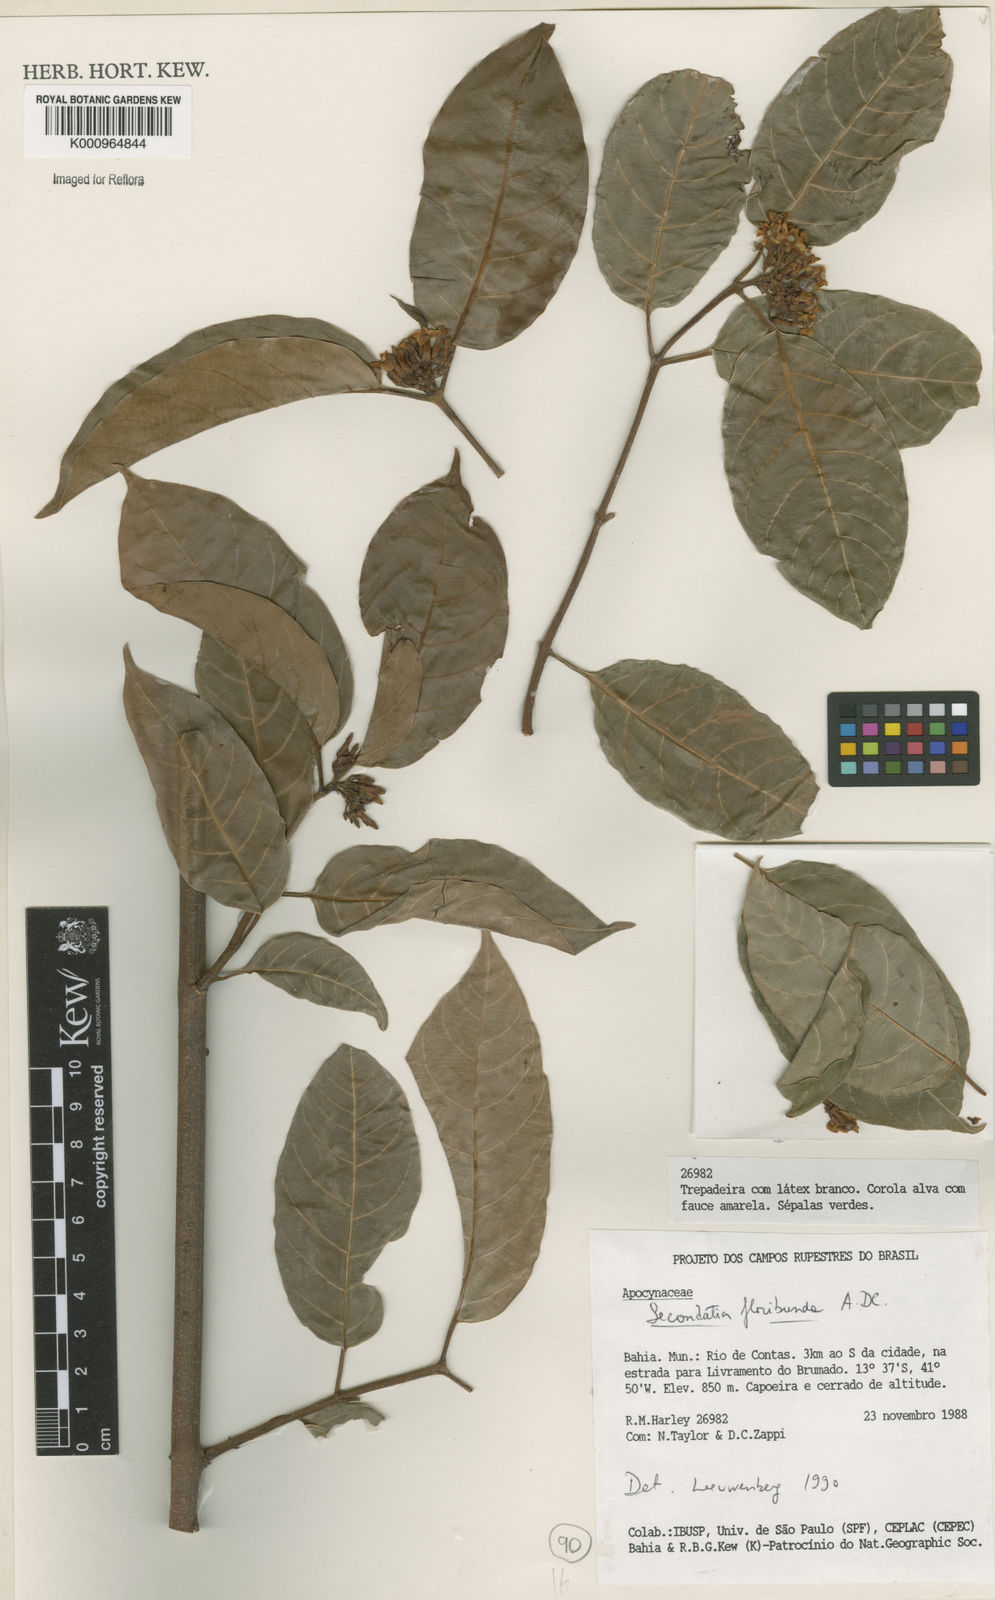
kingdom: Plantae
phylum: Tracheophyta
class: Magnoliopsida
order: Gentianales
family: Apocynaceae
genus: Secondatia
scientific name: Secondatia densiflora
